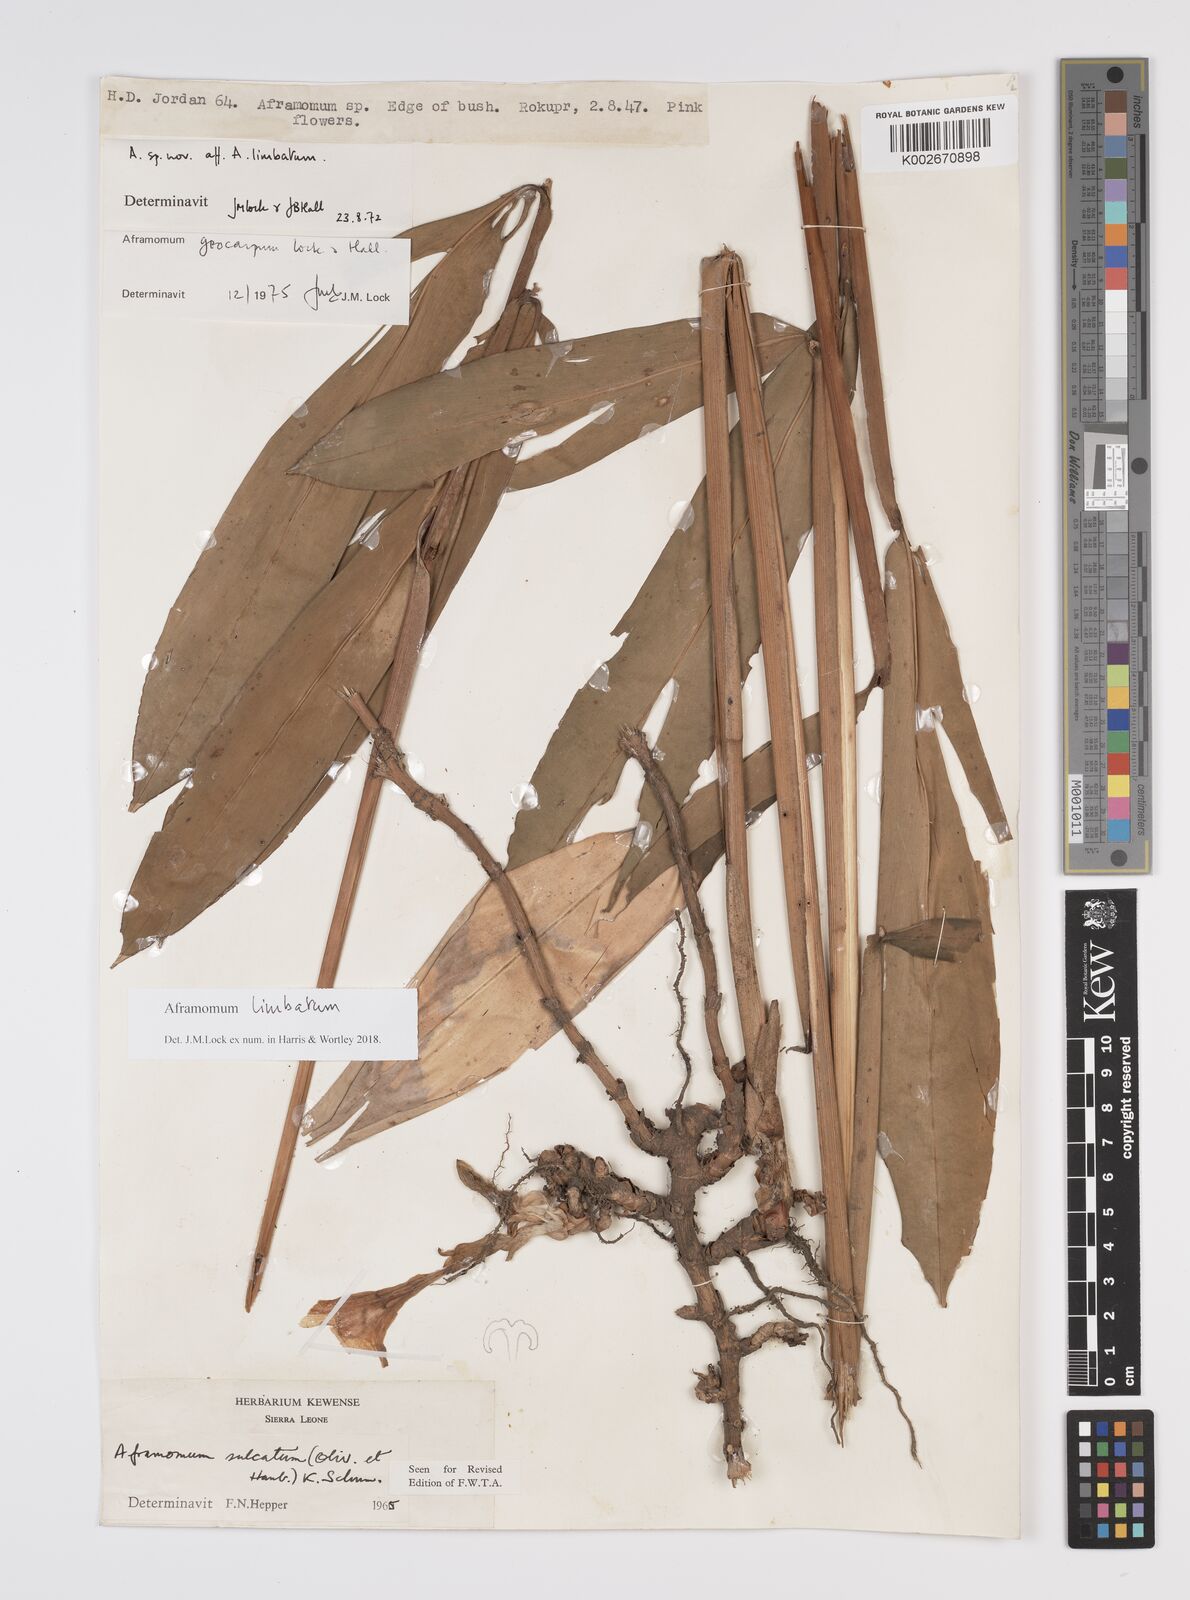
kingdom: Plantae
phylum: Tracheophyta
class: Liliopsida
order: Zingiberales
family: Zingiberaceae
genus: Aframomum
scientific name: Aframomum limbatum
